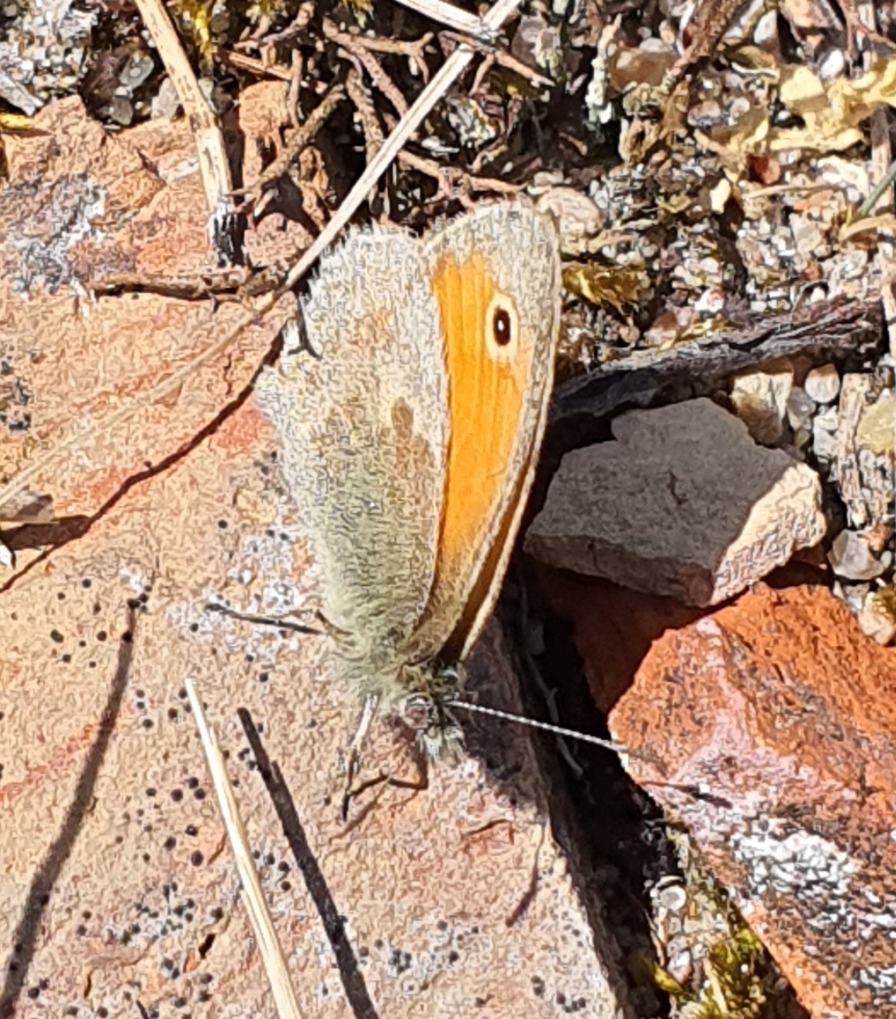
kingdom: Animalia
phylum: Arthropoda
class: Insecta
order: Lepidoptera
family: Nymphalidae
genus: Coenonympha
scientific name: Coenonympha pamphilus
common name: Okkergul randøje
